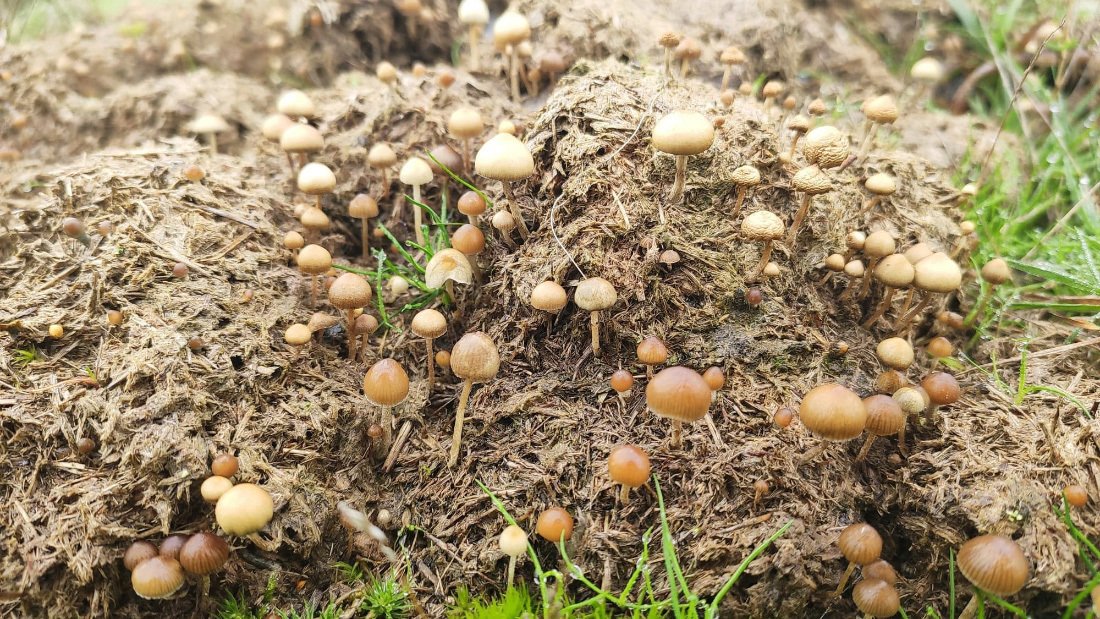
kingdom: Fungi
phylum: Basidiomycota
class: Agaricomycetes
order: Agaricales
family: Hymenogastraceae
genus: Psilocybe
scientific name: Psilocybe liniformans
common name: slimægget nøgenhat
